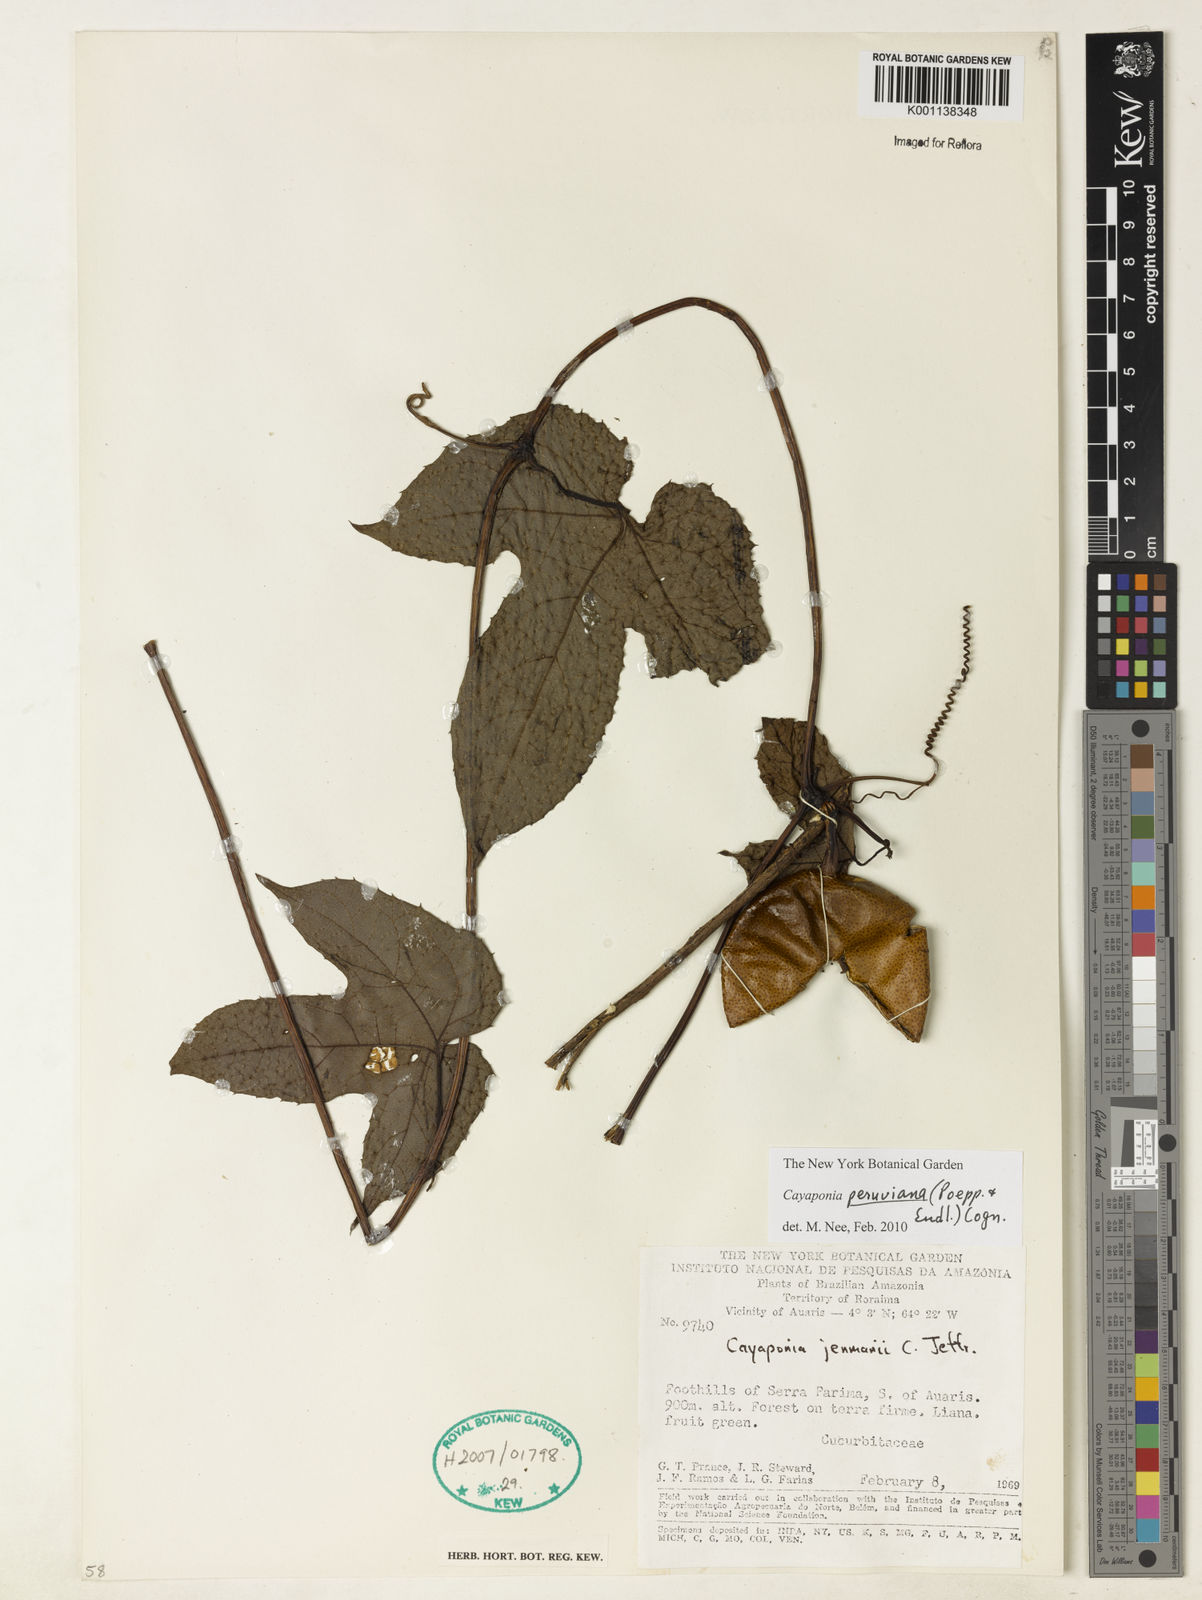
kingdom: Plantae
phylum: Tracheophyta
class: Magnoliopsida
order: Cucurbitales
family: Cucurbitaceae
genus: Cayaponia
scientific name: Cayaponia peruviana
